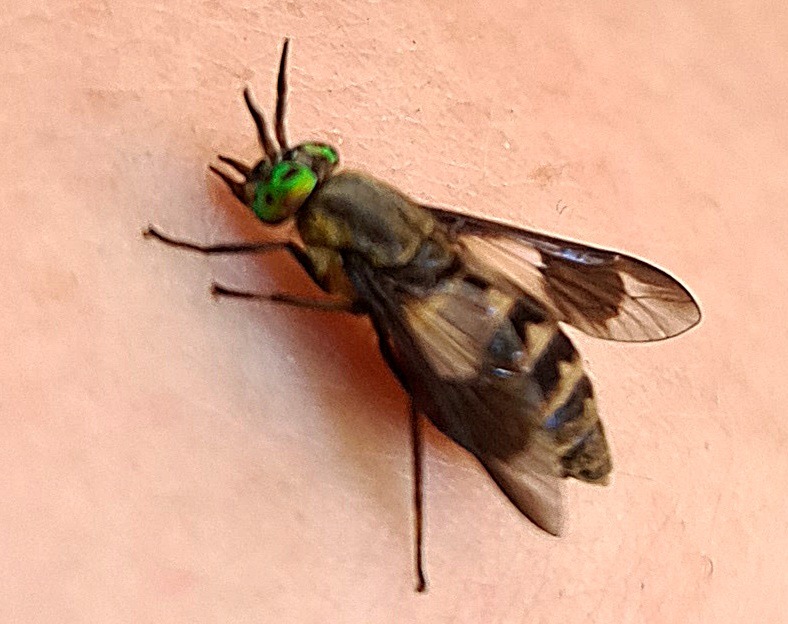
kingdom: Animalia
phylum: Arthropoda
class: Insecta
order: Diptera
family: Tabanidae
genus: Chrysops
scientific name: Chrysops relictus
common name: Guldklæg
